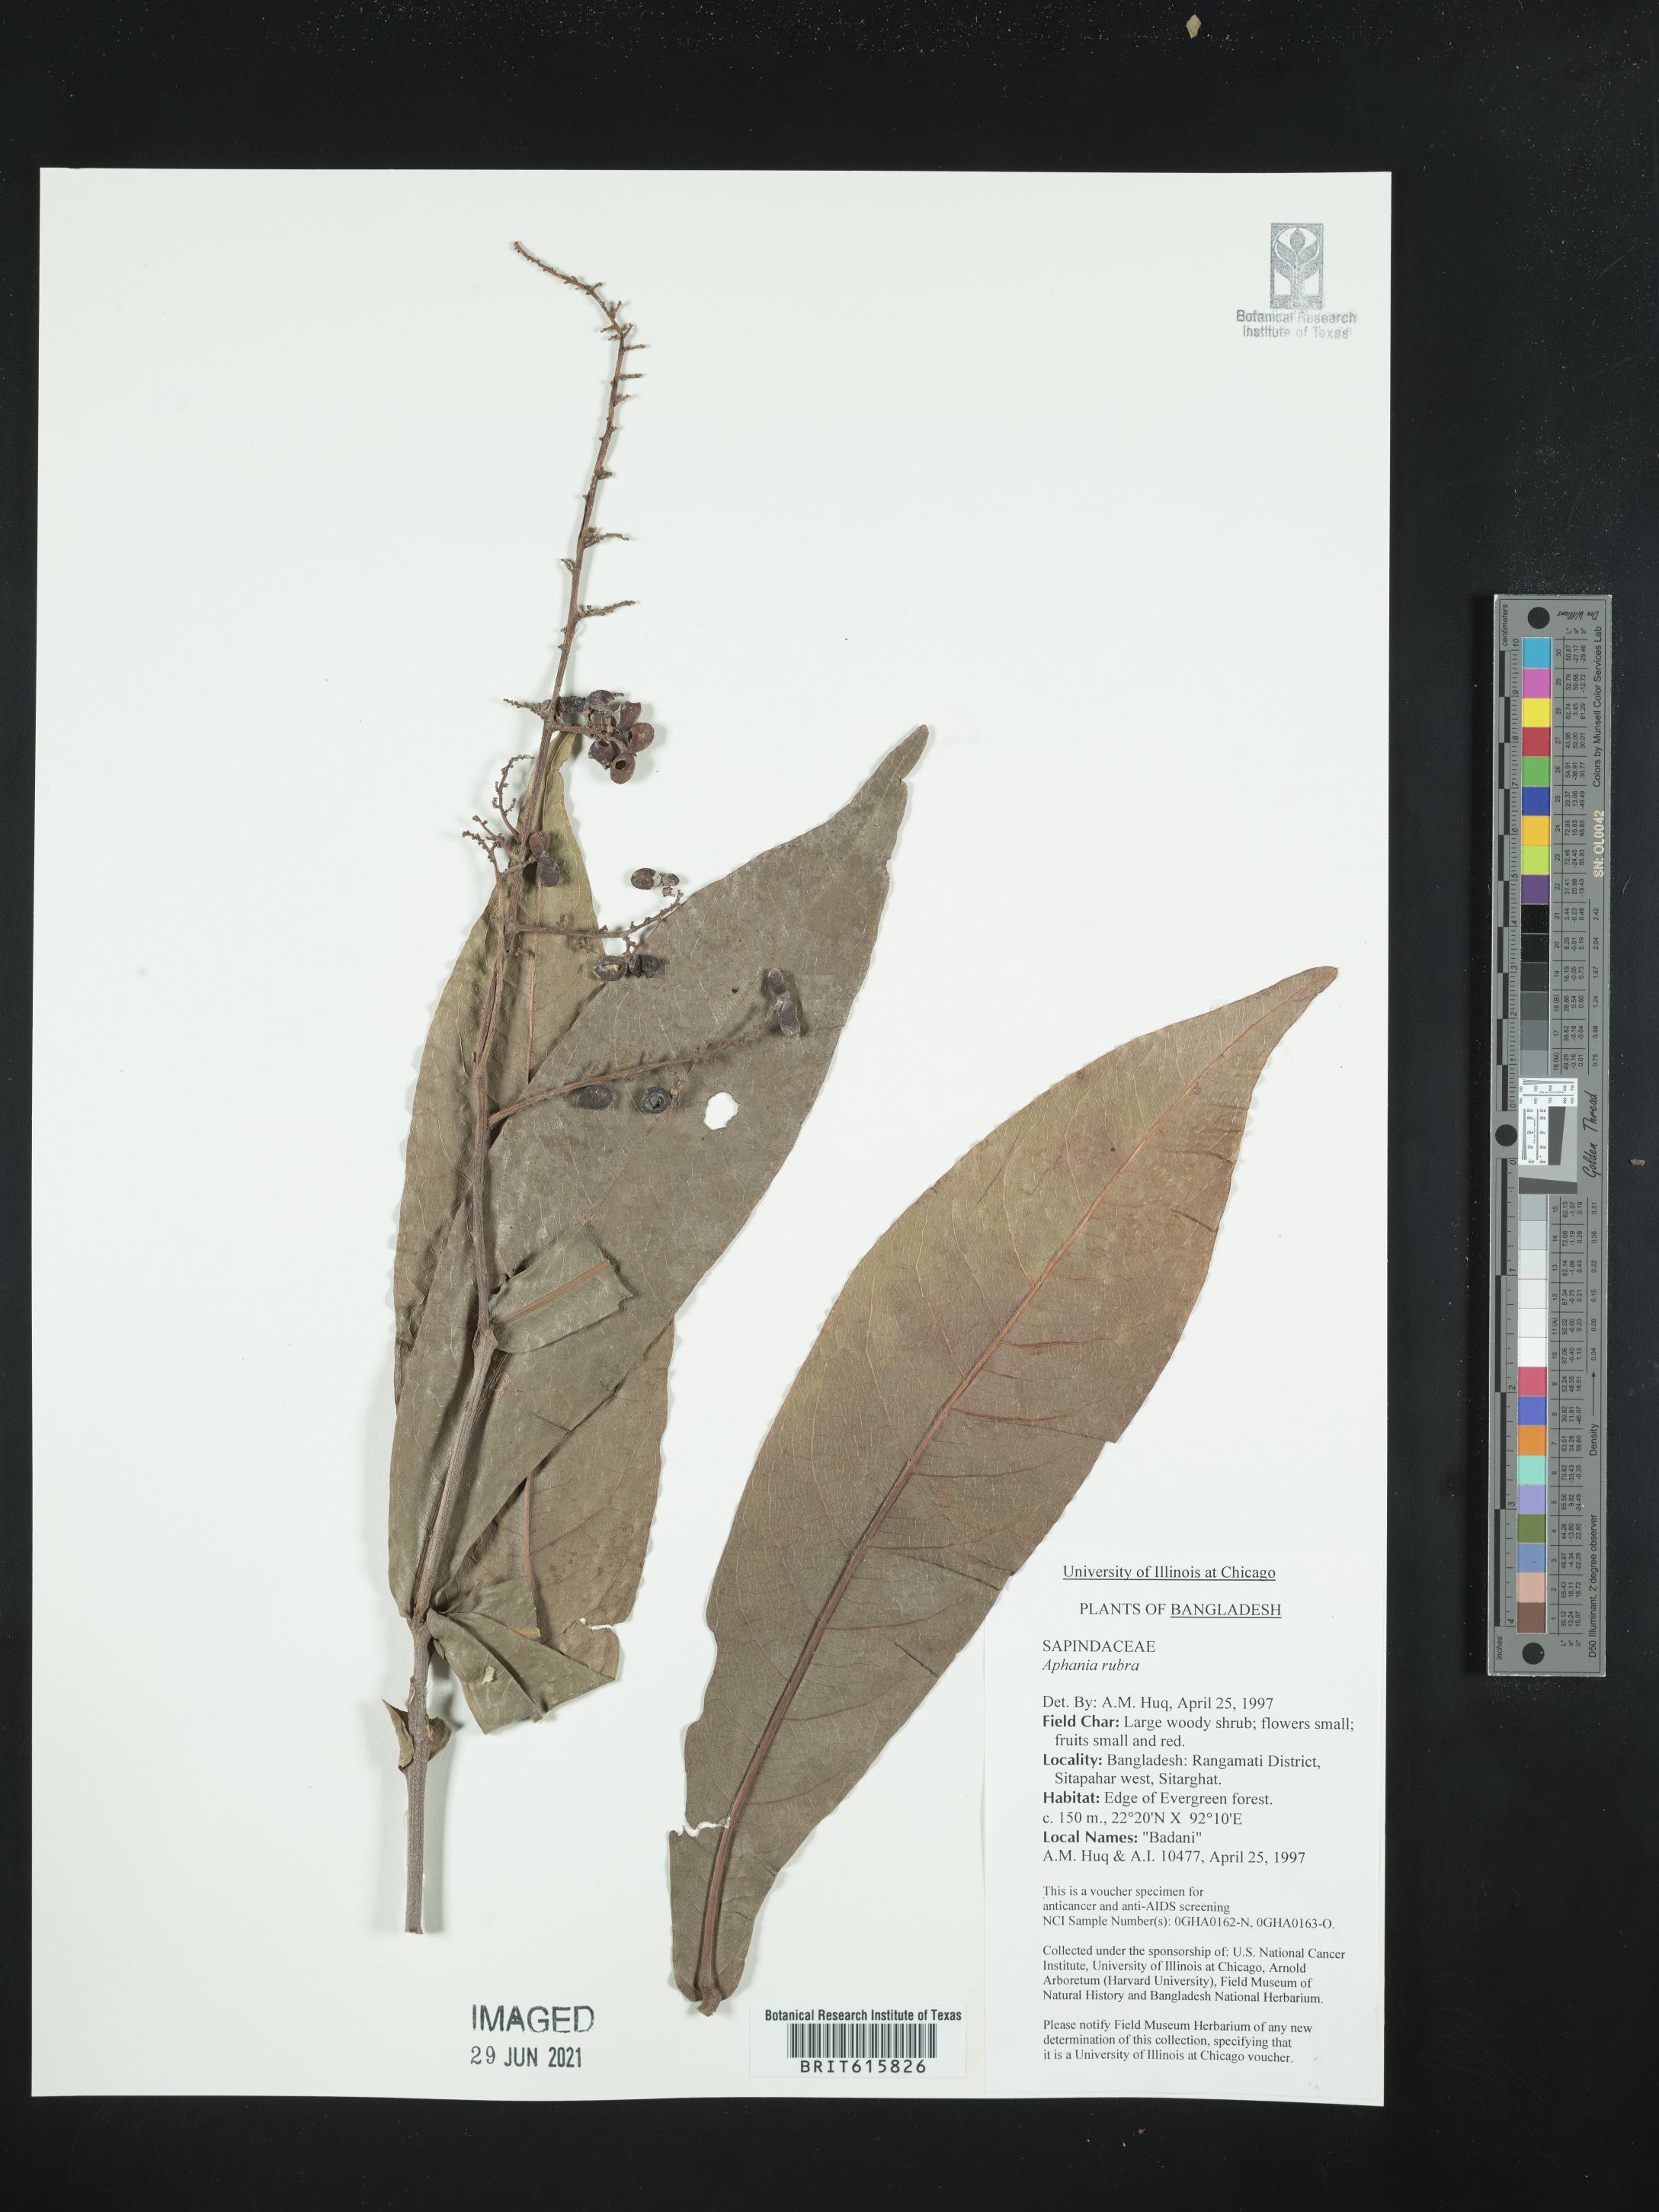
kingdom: Plantae
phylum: Tracheophyta
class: Magnoliopsida
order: Sapindales
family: Sapindaceae
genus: Lepisanthes
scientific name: Lepisanthes senegalensis
